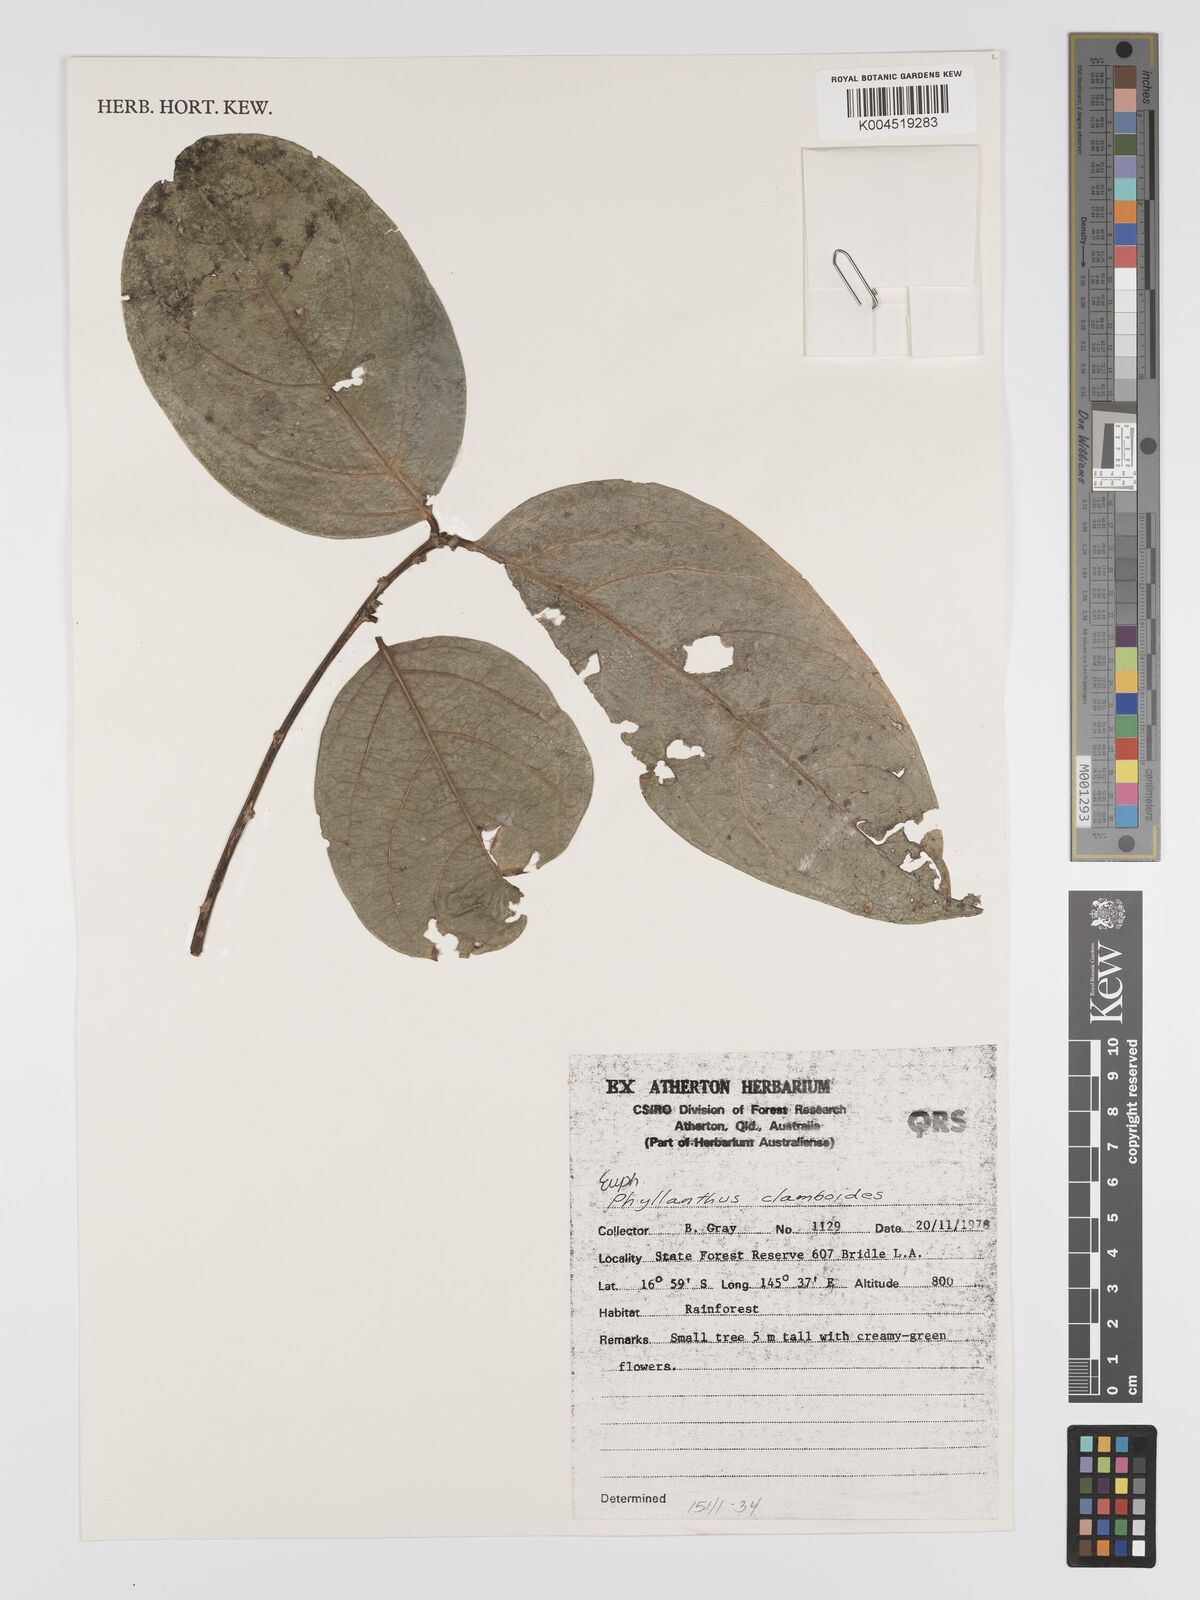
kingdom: Plantae
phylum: Tracheophyta
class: Magnoliopsida
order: Malpighiales
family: Phyllanthaceae
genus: Phyllanthus
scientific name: Phyllanthus clamboides
